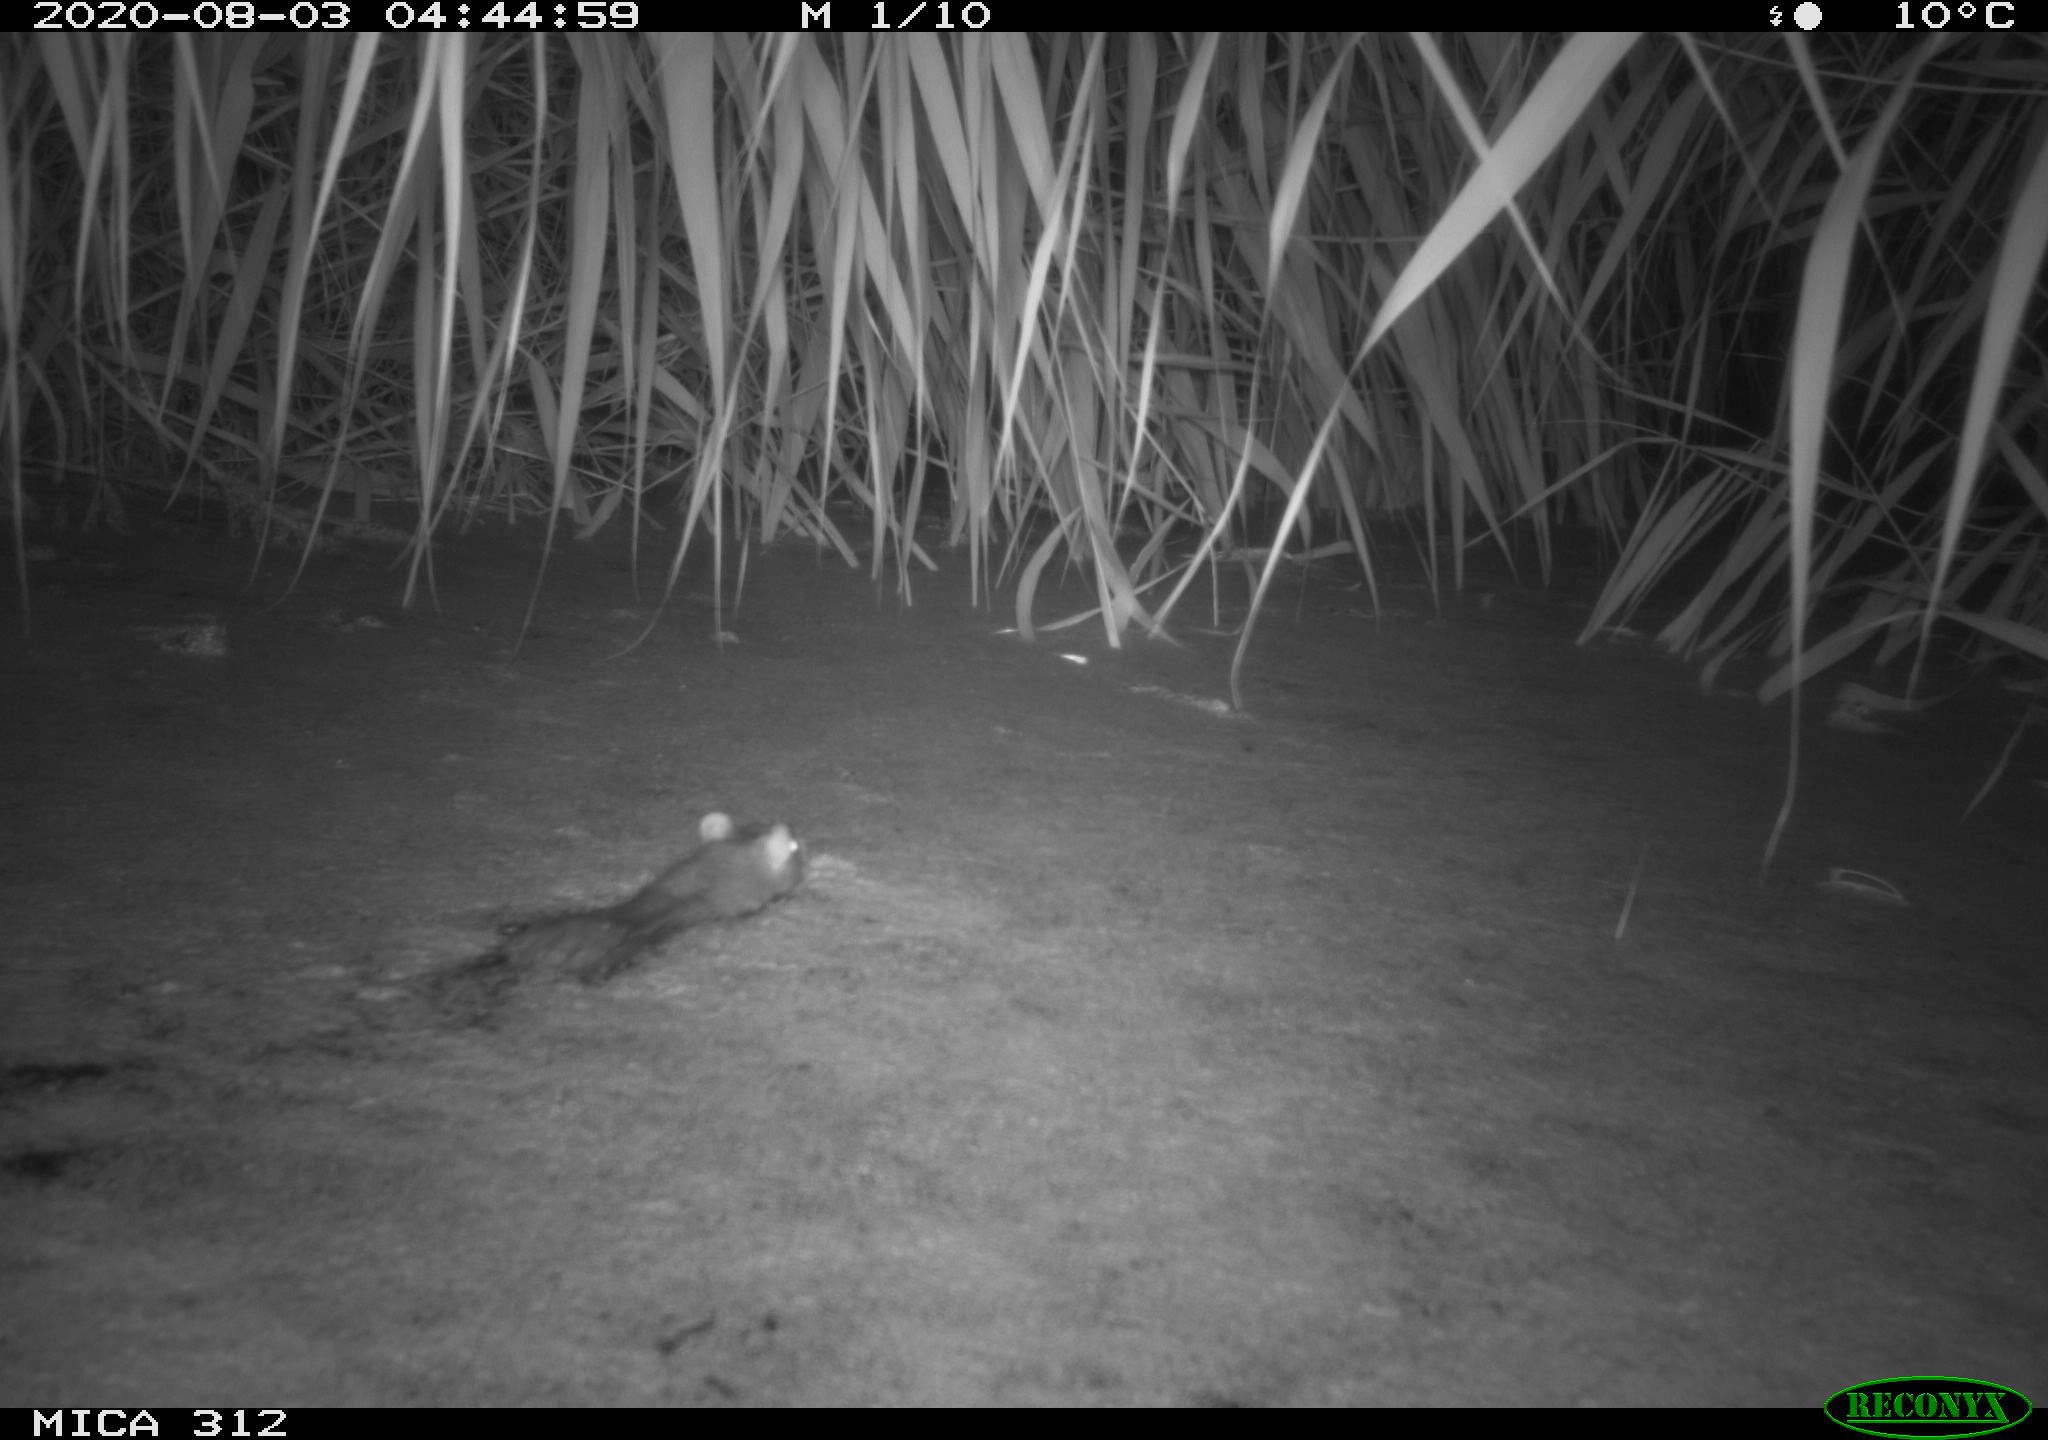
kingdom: Animalia
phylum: Chordata
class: Mammalia
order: Rodentia
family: Muridae
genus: Rattus
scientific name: Rattus norvegicus
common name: Brown rat
